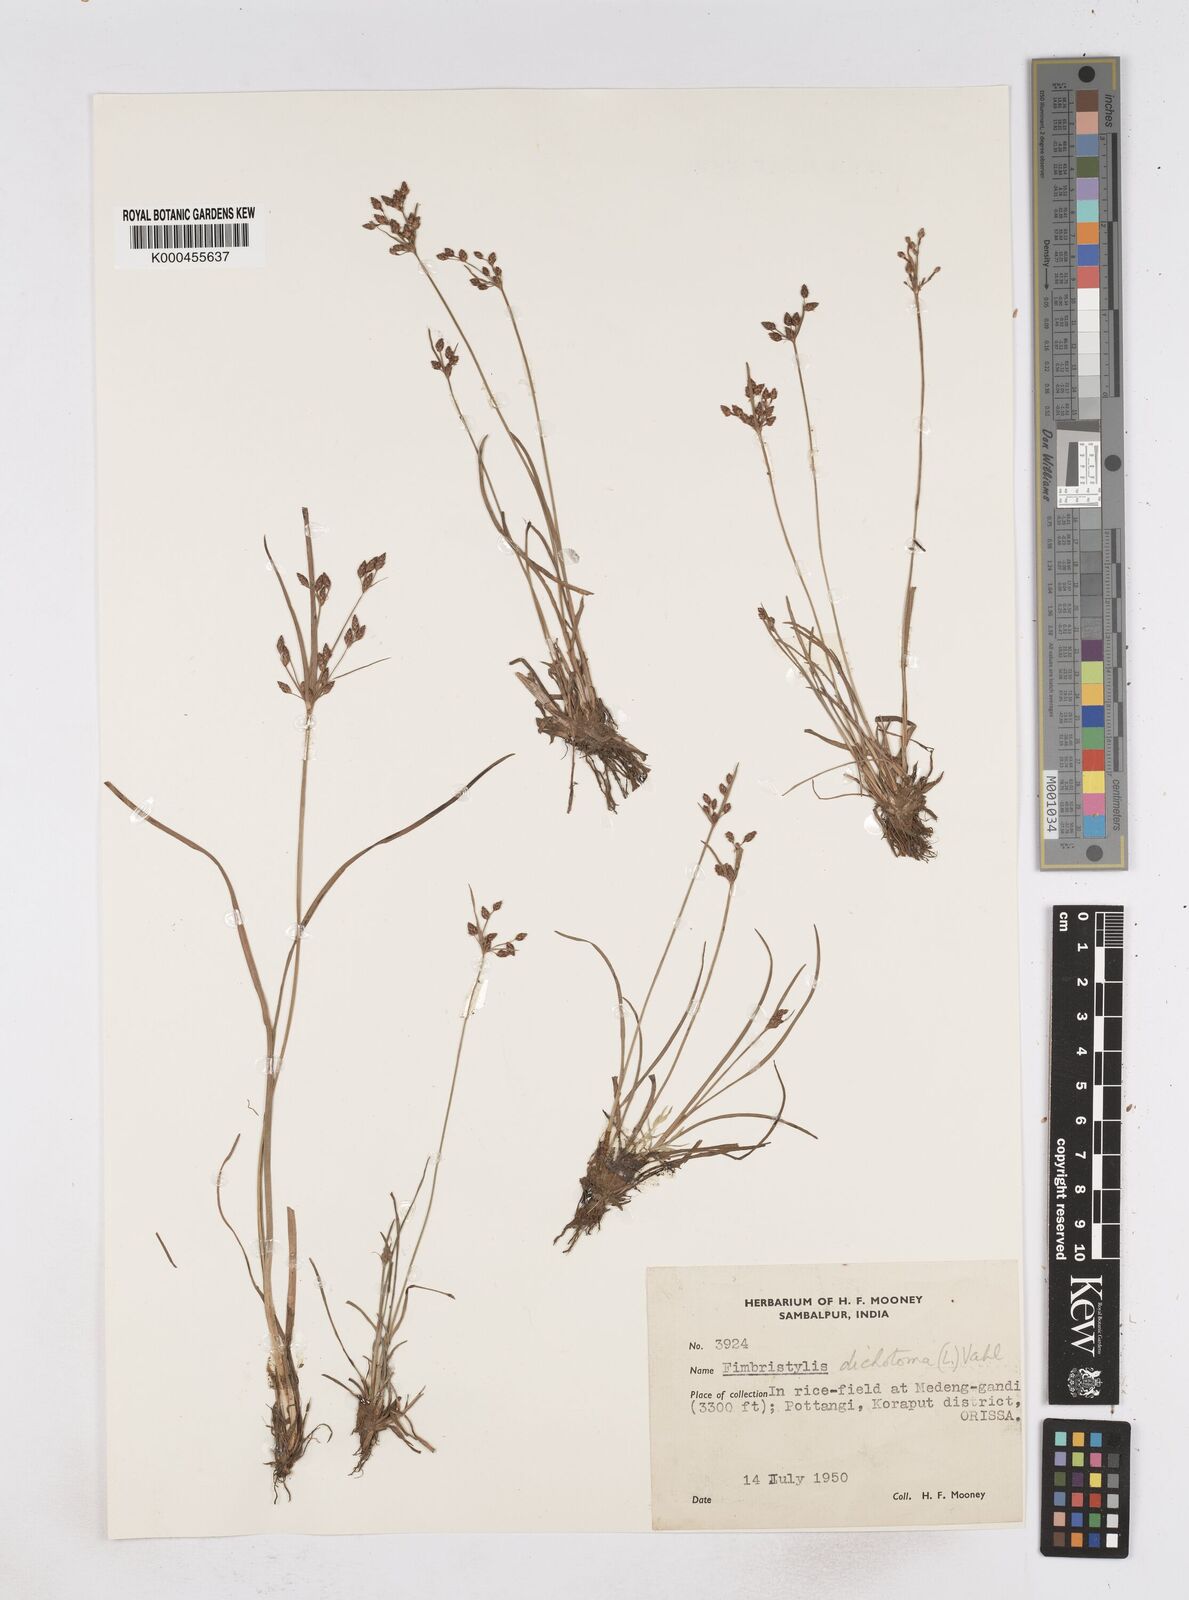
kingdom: Plantae
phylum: Tracheophyta
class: Liliopsida
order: Poales
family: Cyperaceae
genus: Fimbristylis
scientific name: Fimbristylis dichotoma
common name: Forked fimbry
